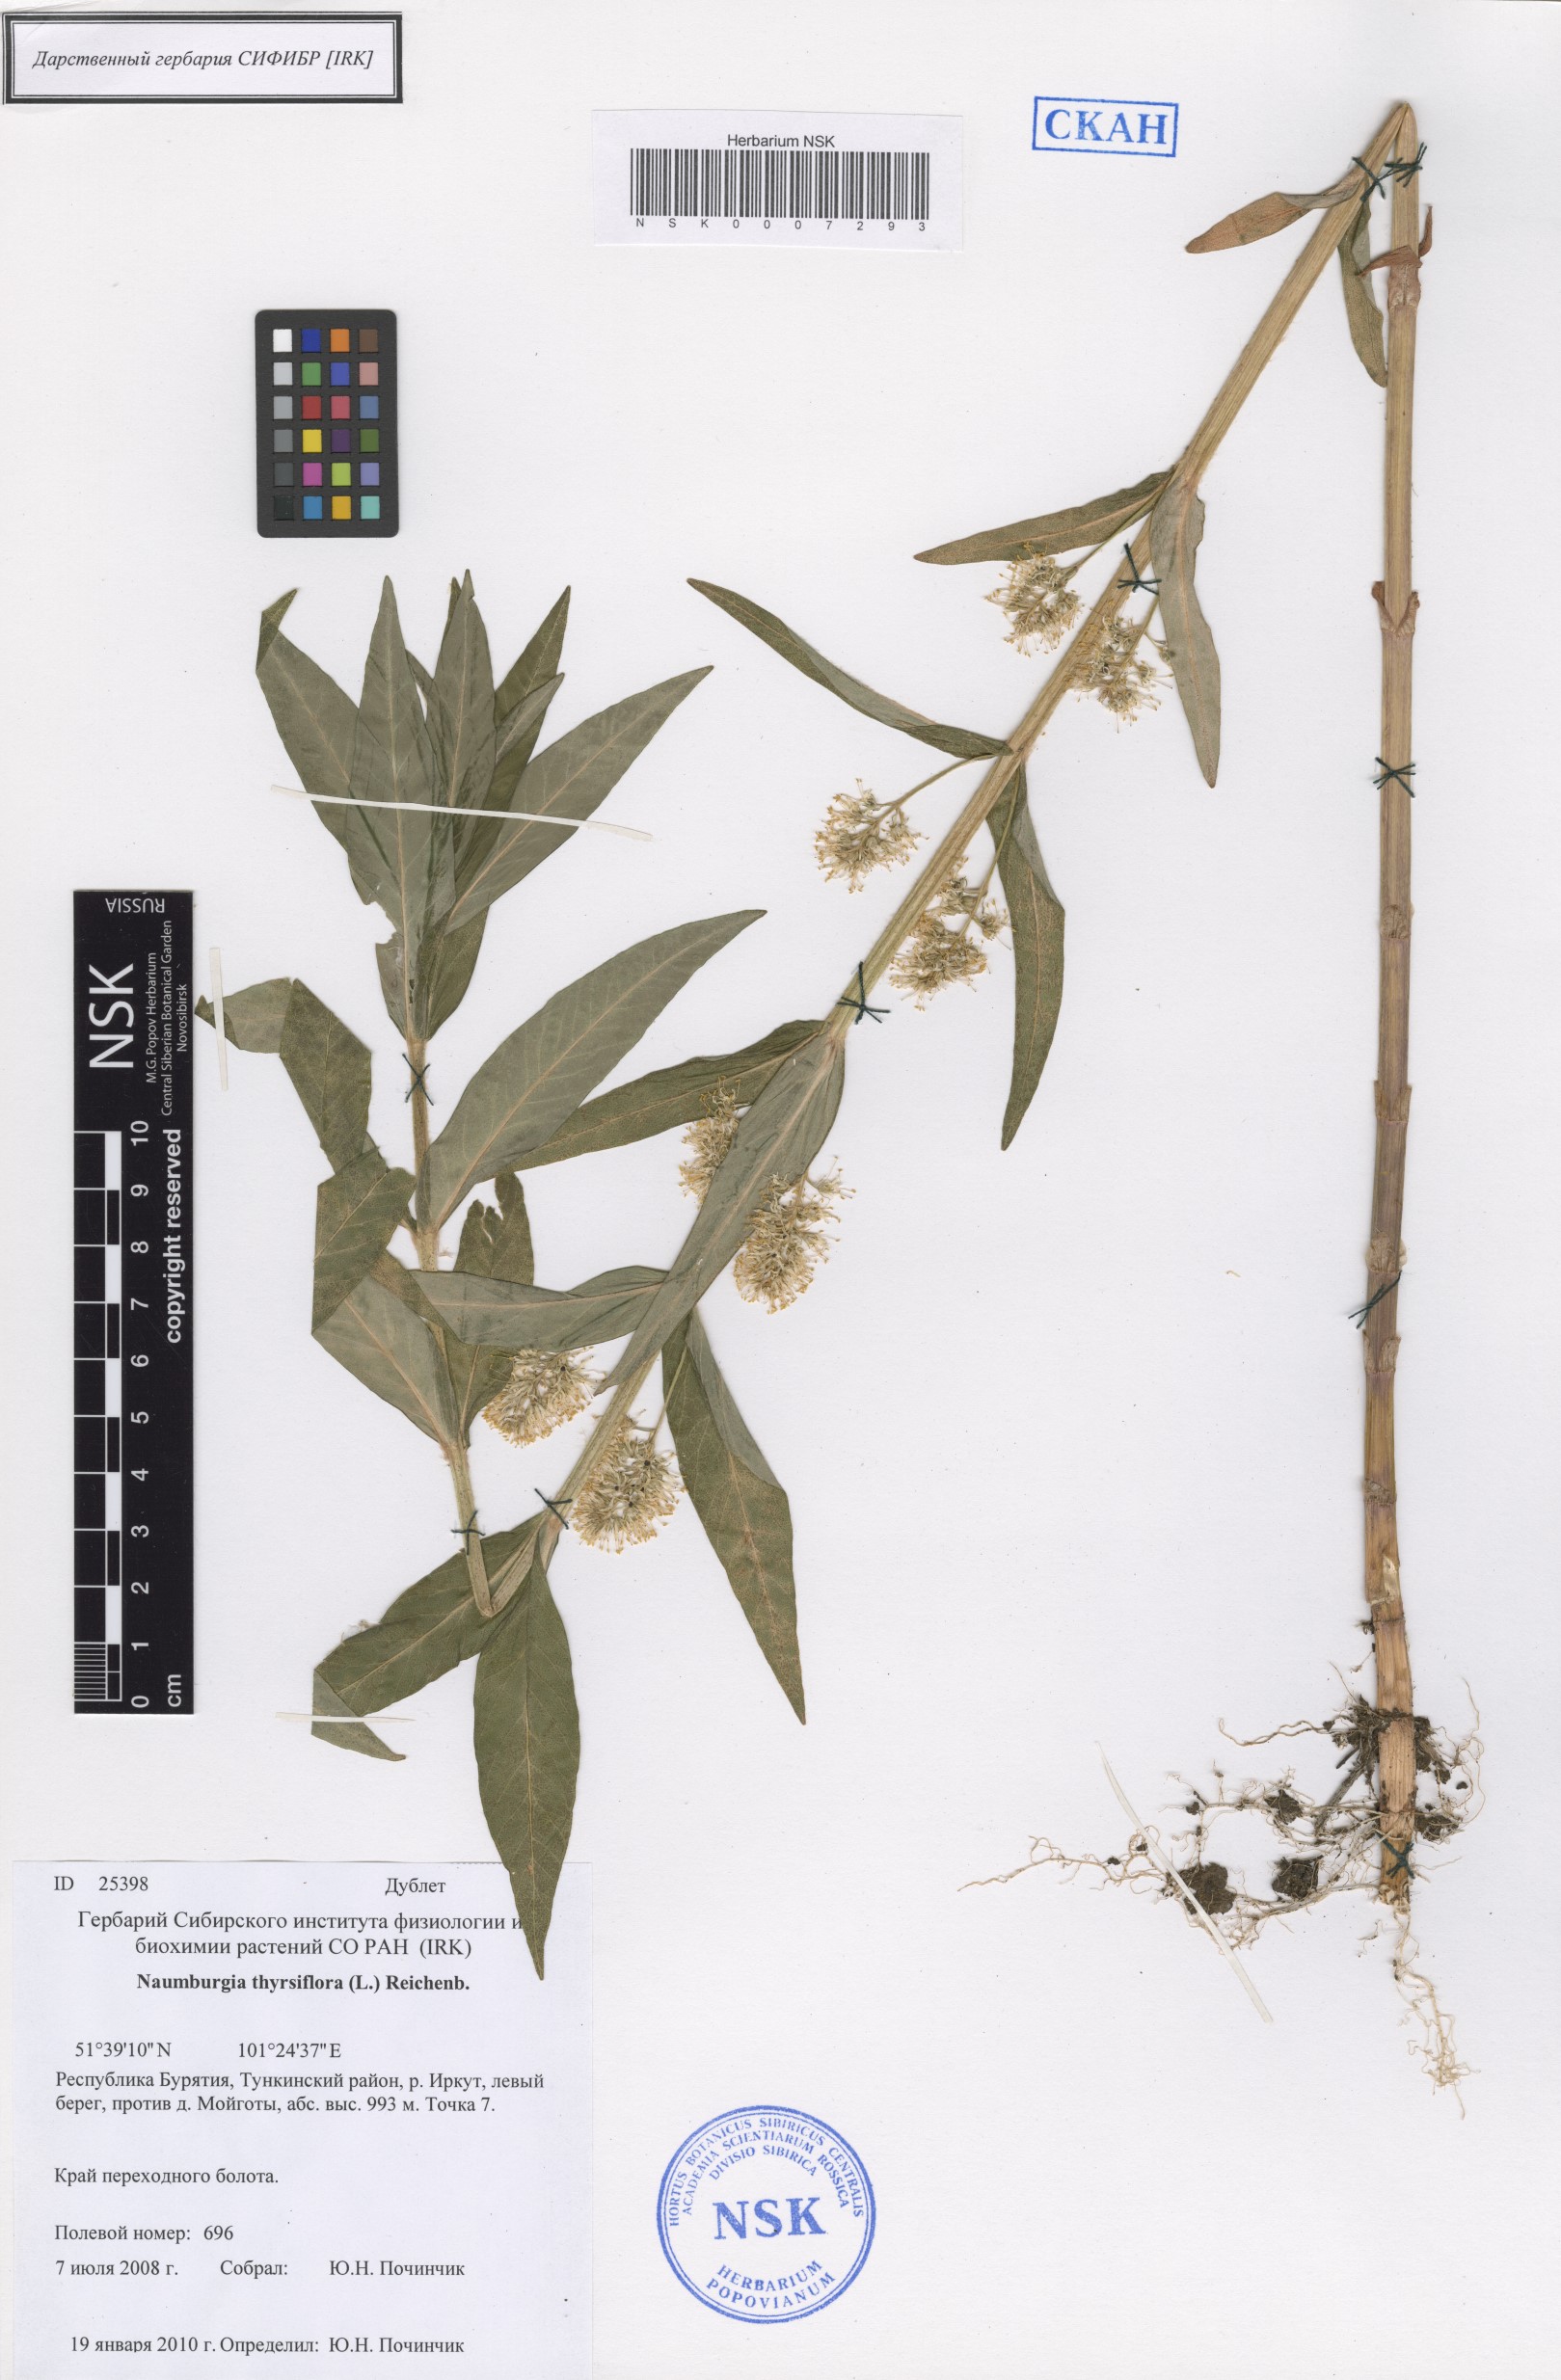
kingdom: Plantae
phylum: Tracheophyta
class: Magnoliopsida
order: Ericales
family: Primulaceae
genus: Lysimachia
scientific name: Lysimachia thyrsiflora
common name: Tufted loosestrife
